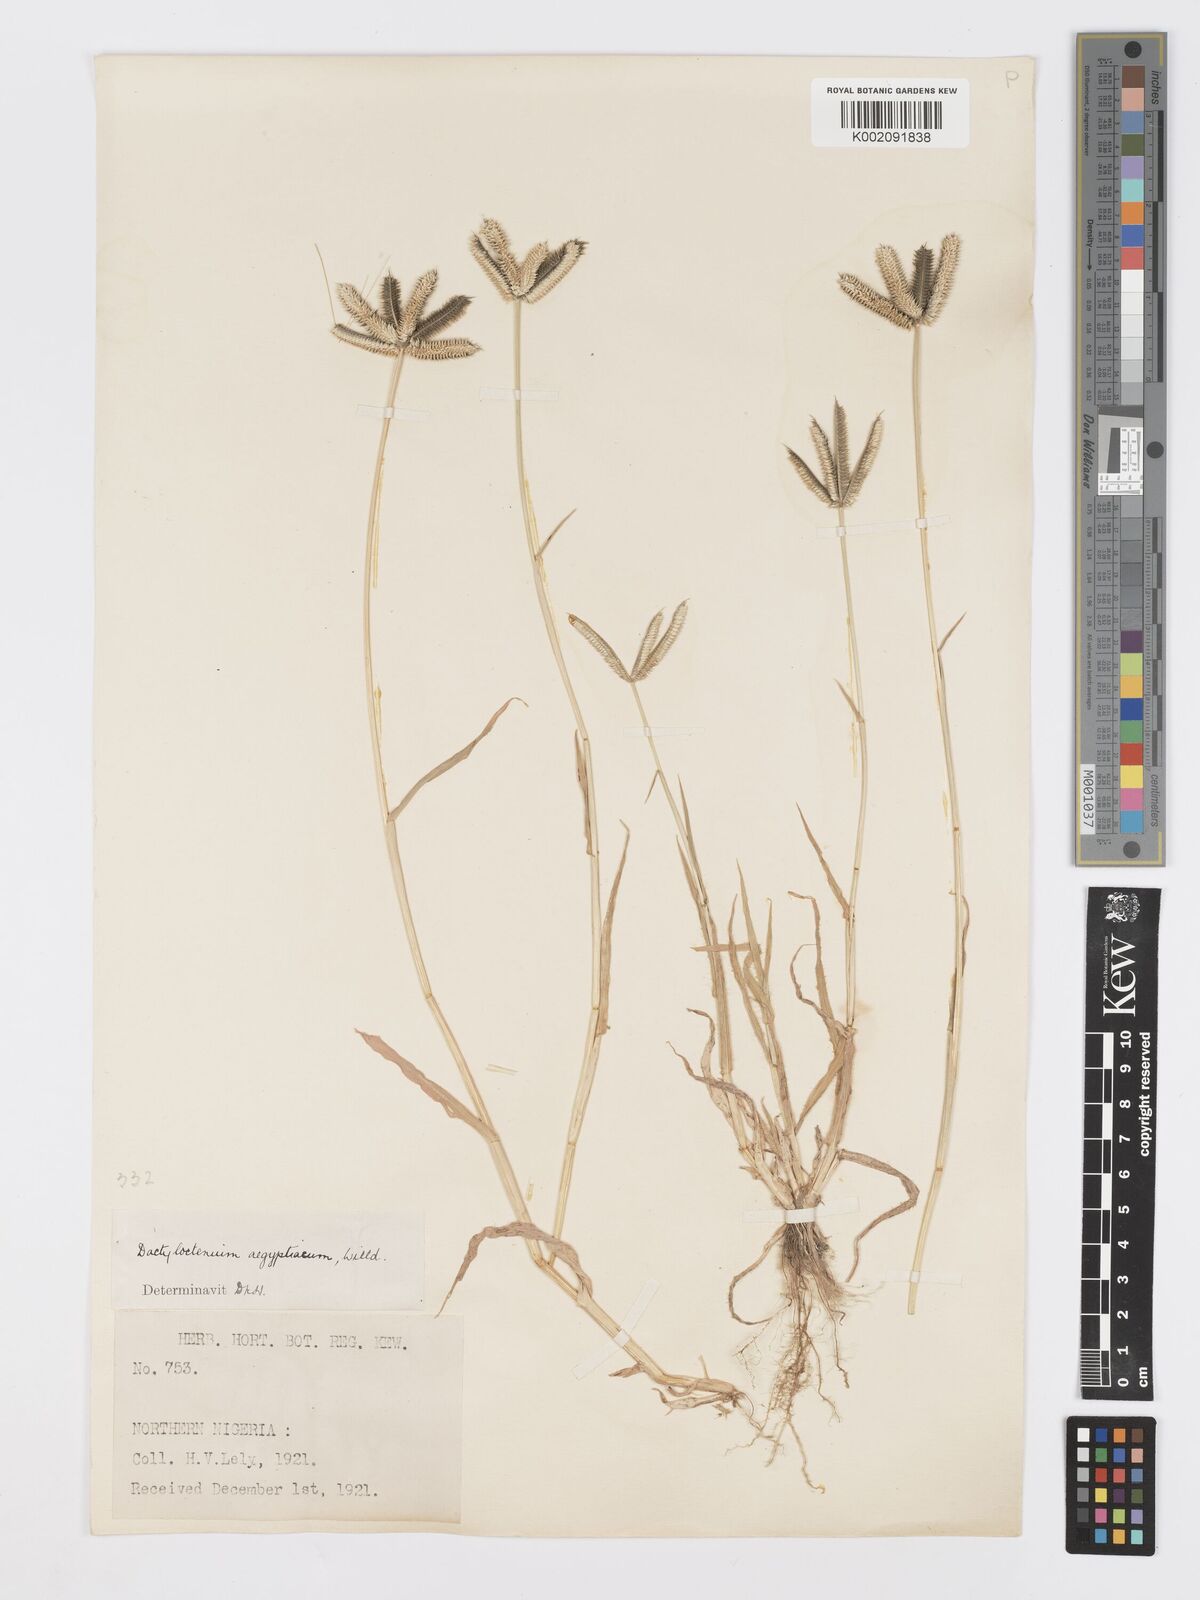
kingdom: Plantae
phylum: Tracheophyta
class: Liliopsida
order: Poales
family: Poaceae
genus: Dactyloctenium
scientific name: Dactyloctenium aegyptium
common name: Egyptian grass
